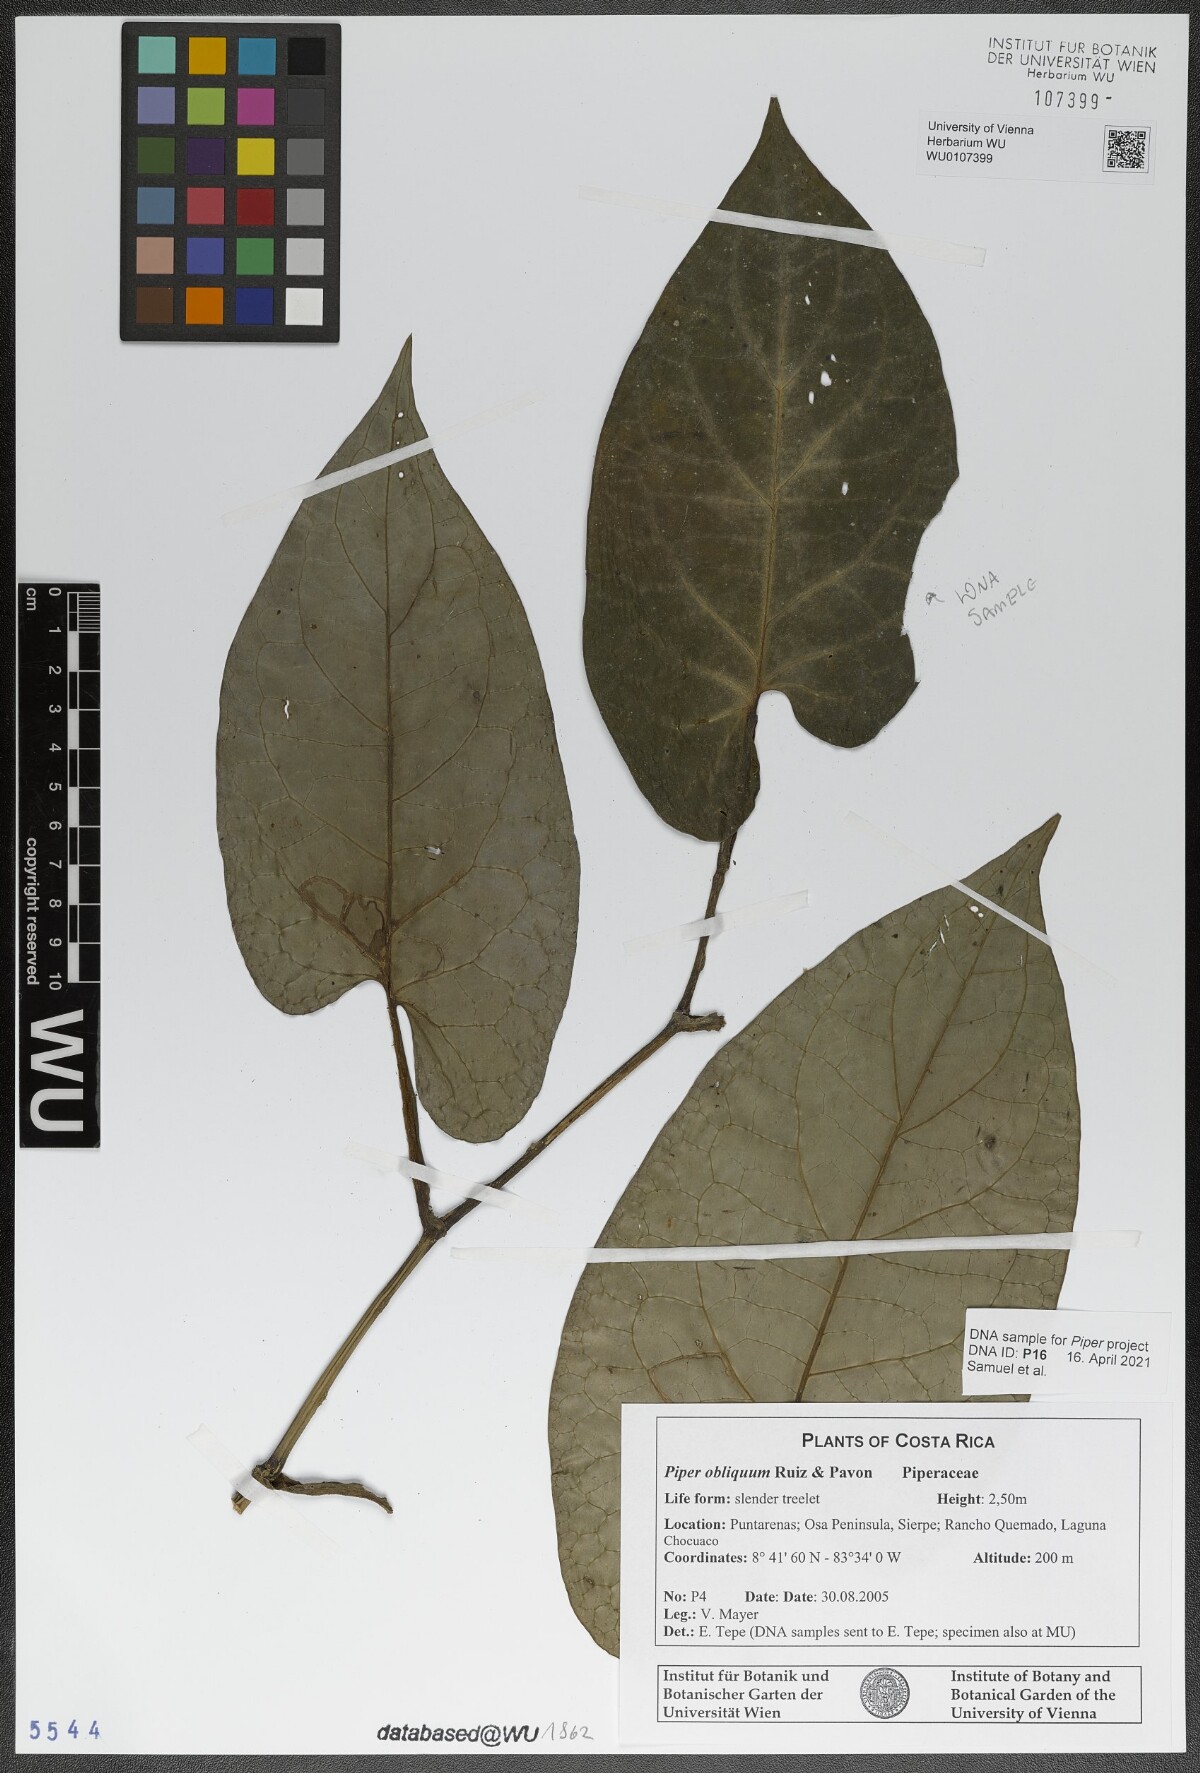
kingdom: Plantae
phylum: Tracheophyta
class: Magnoliopsida
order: Piperales
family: Piperaceae
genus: Piper
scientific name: Piper obliquum
